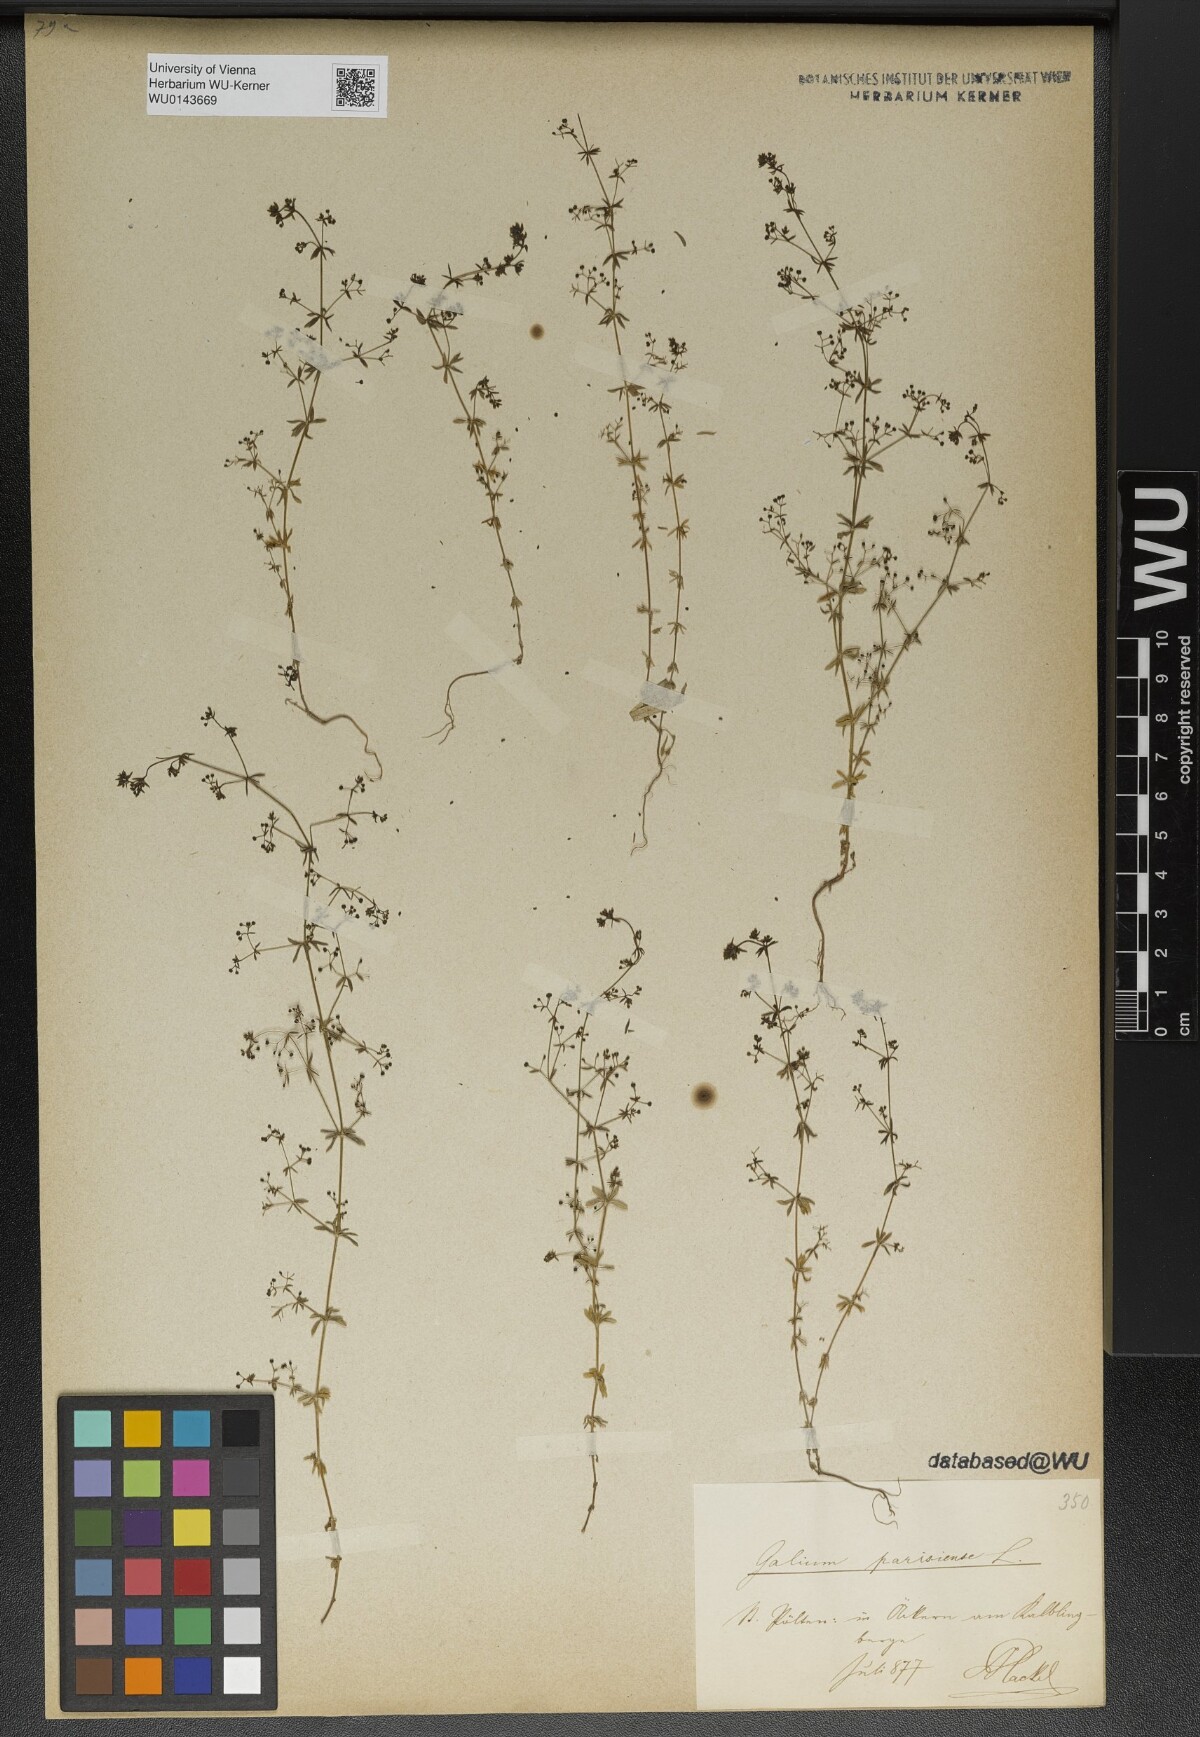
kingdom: Plantae
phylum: Tracheophyta
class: Magnoliopsida
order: Gentianales
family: Rubiaceae
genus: Galium
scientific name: Galium parisiense
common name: Wall bedstraw
